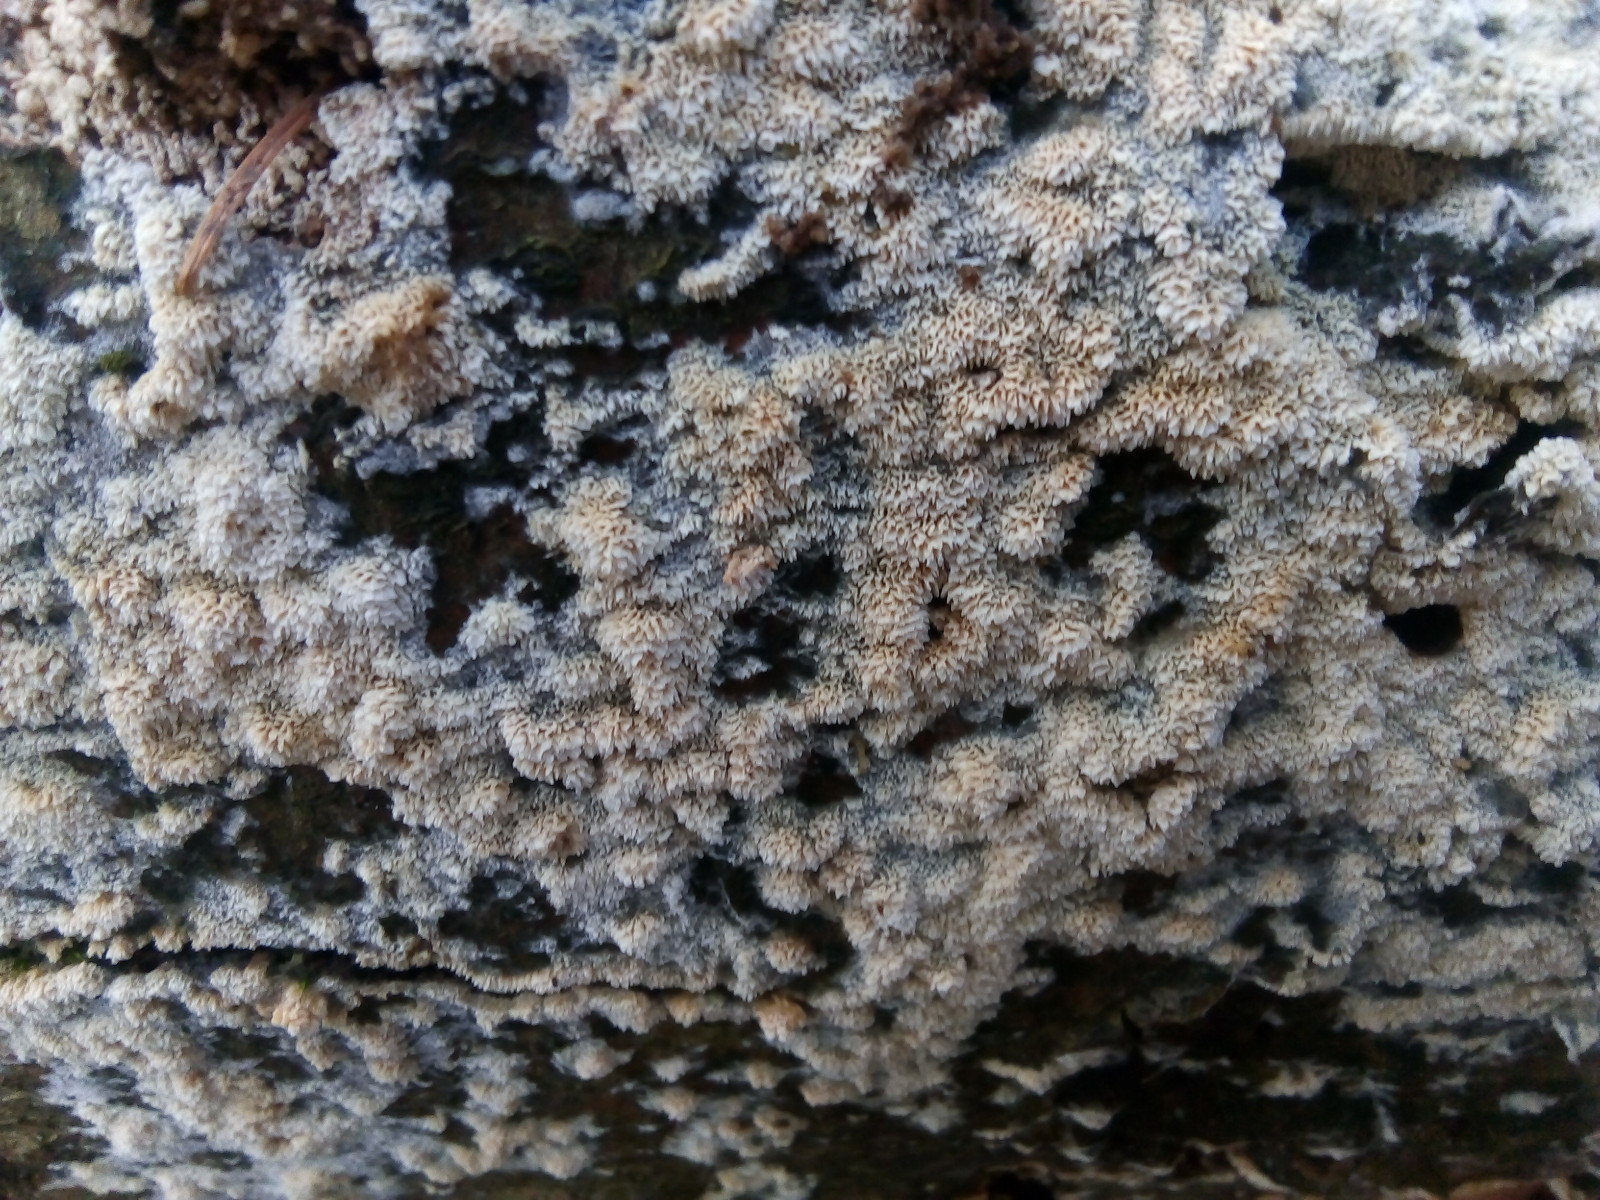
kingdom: Fungi
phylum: Basidiomycota
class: Agaricomycetes
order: Hymenochaetales
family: Schizoporaceae
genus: Xylodon
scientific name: Xylodon subtropicus
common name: labyrint-tandsvamp
